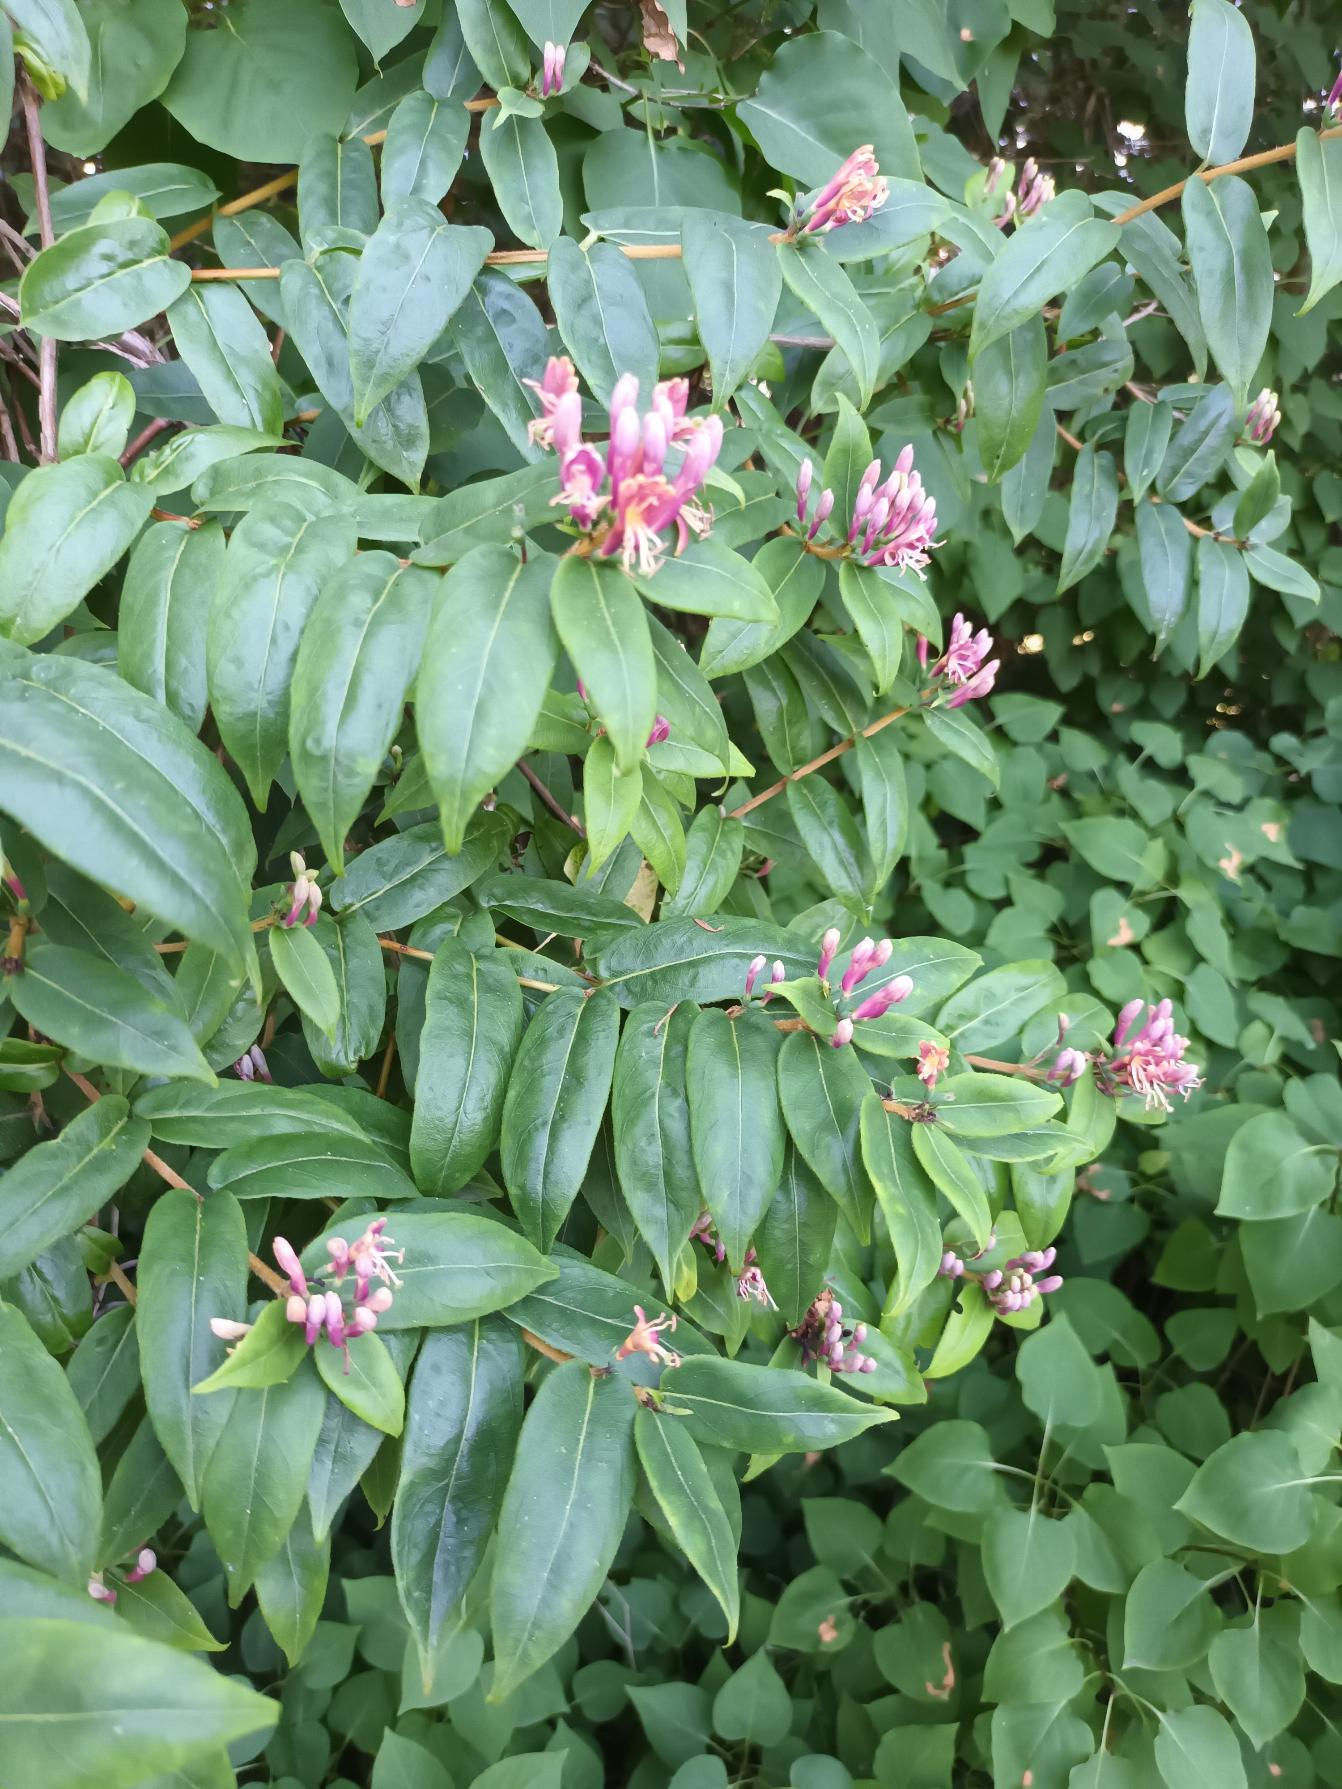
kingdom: Plantae
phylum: Tracheophyta
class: Magnoliopsida
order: Dipsacales
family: Caprifoliaceae
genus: Lonicera
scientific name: Lonicera acuminata
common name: Henrys gedeblad
